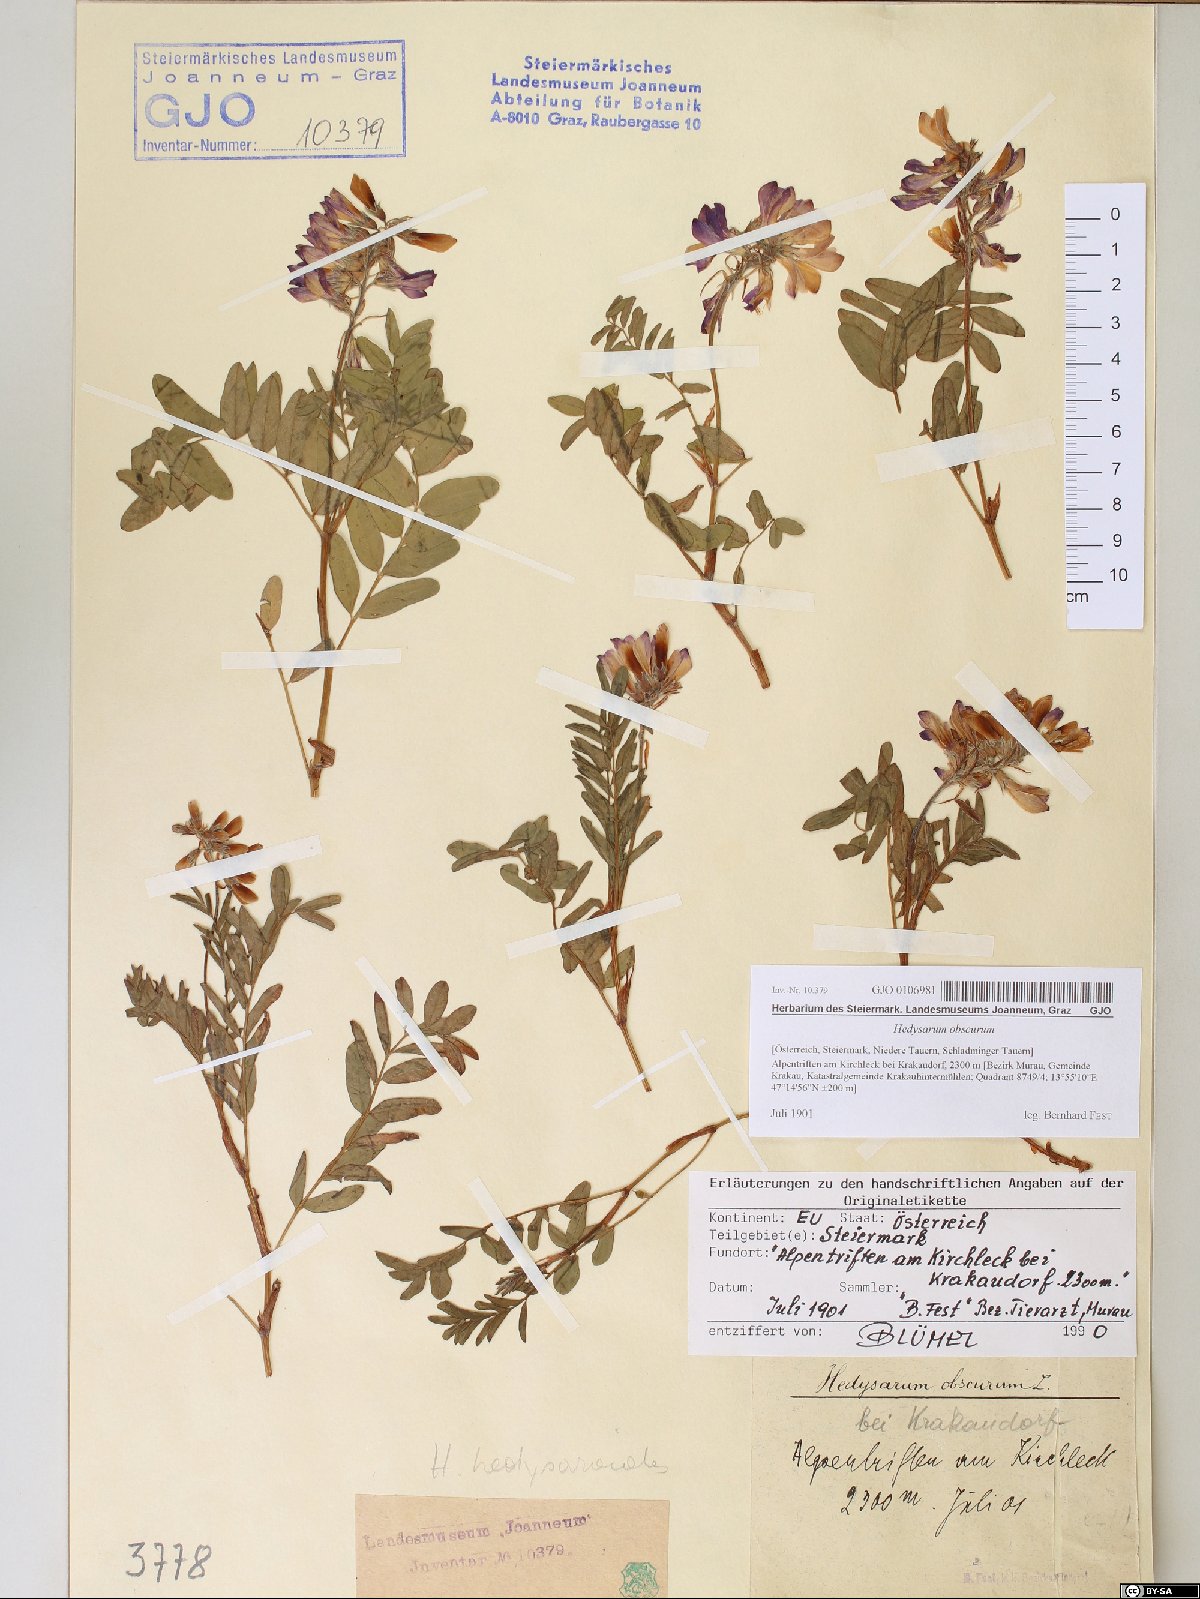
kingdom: Plantae
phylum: Tracheophyta
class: Magnoliopsida
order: Fabales
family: Fabaceae
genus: Hedysarum
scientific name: Hedysarum hedysaroides
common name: Alpine french-honeysuckle
